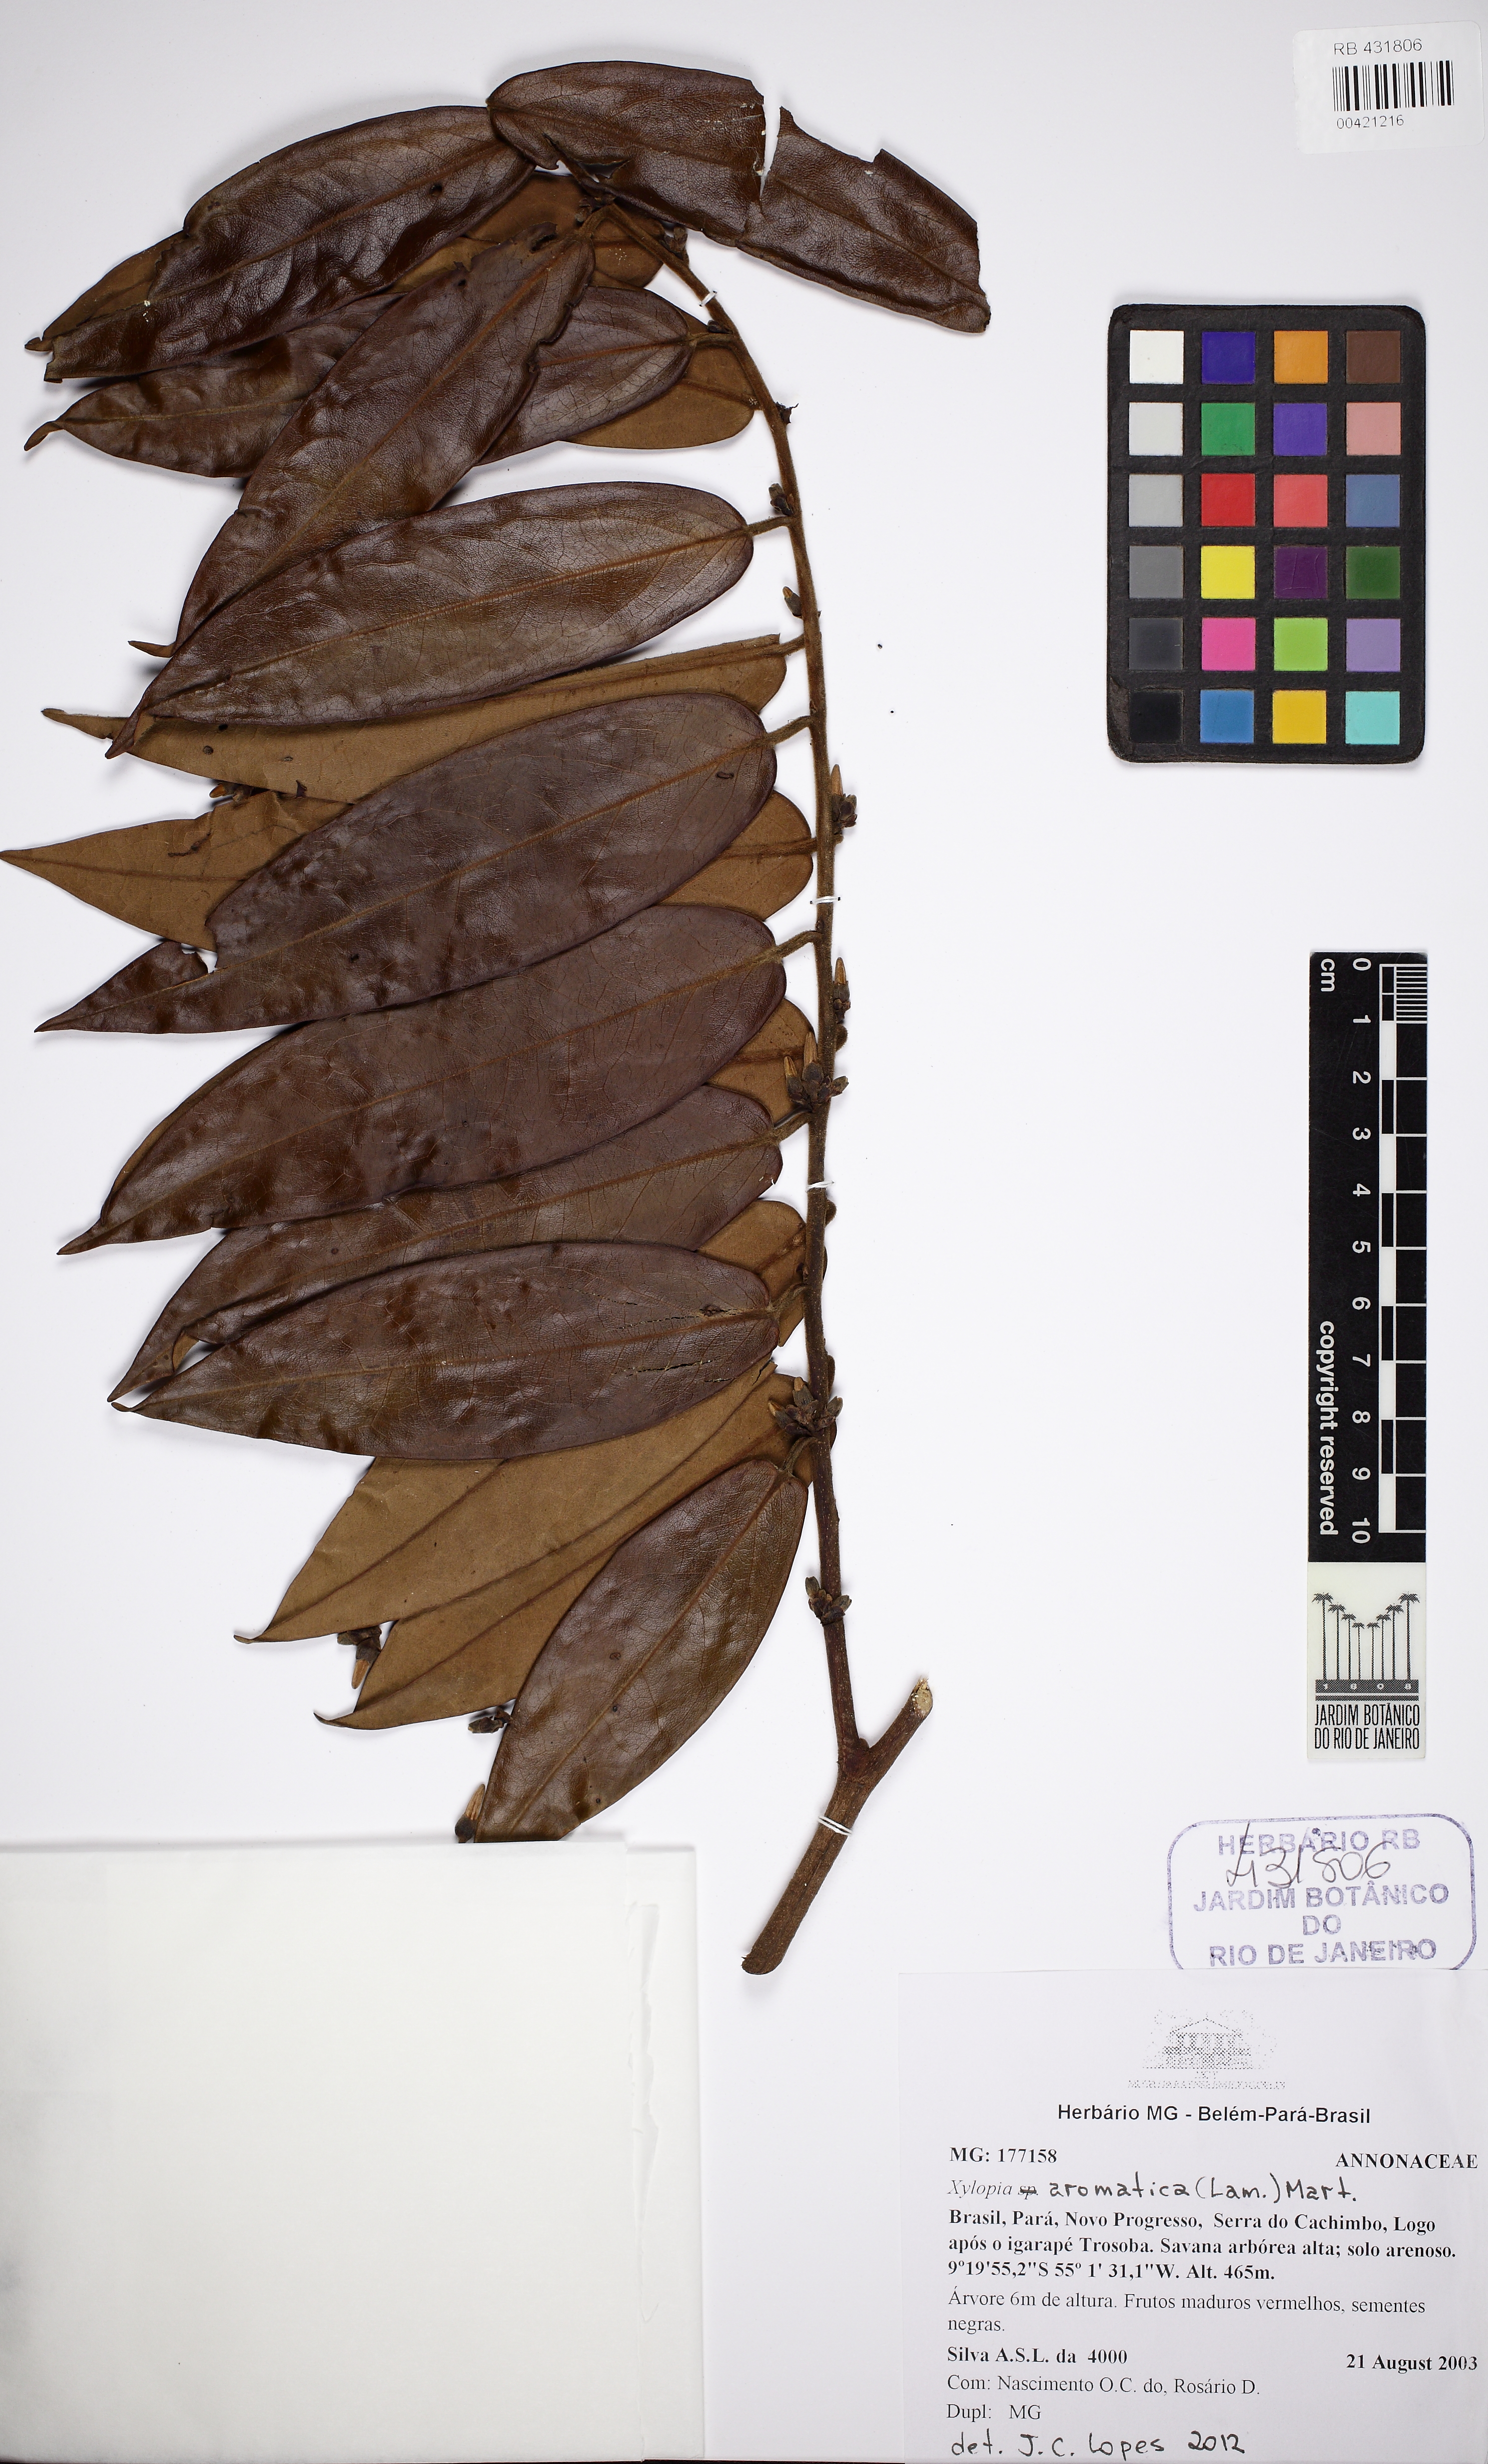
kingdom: Plantae
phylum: Tracheophyta
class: Magnoliopsida
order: Magnoliales
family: Annonaceae
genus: Xylopia
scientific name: Xylopia aromatica
